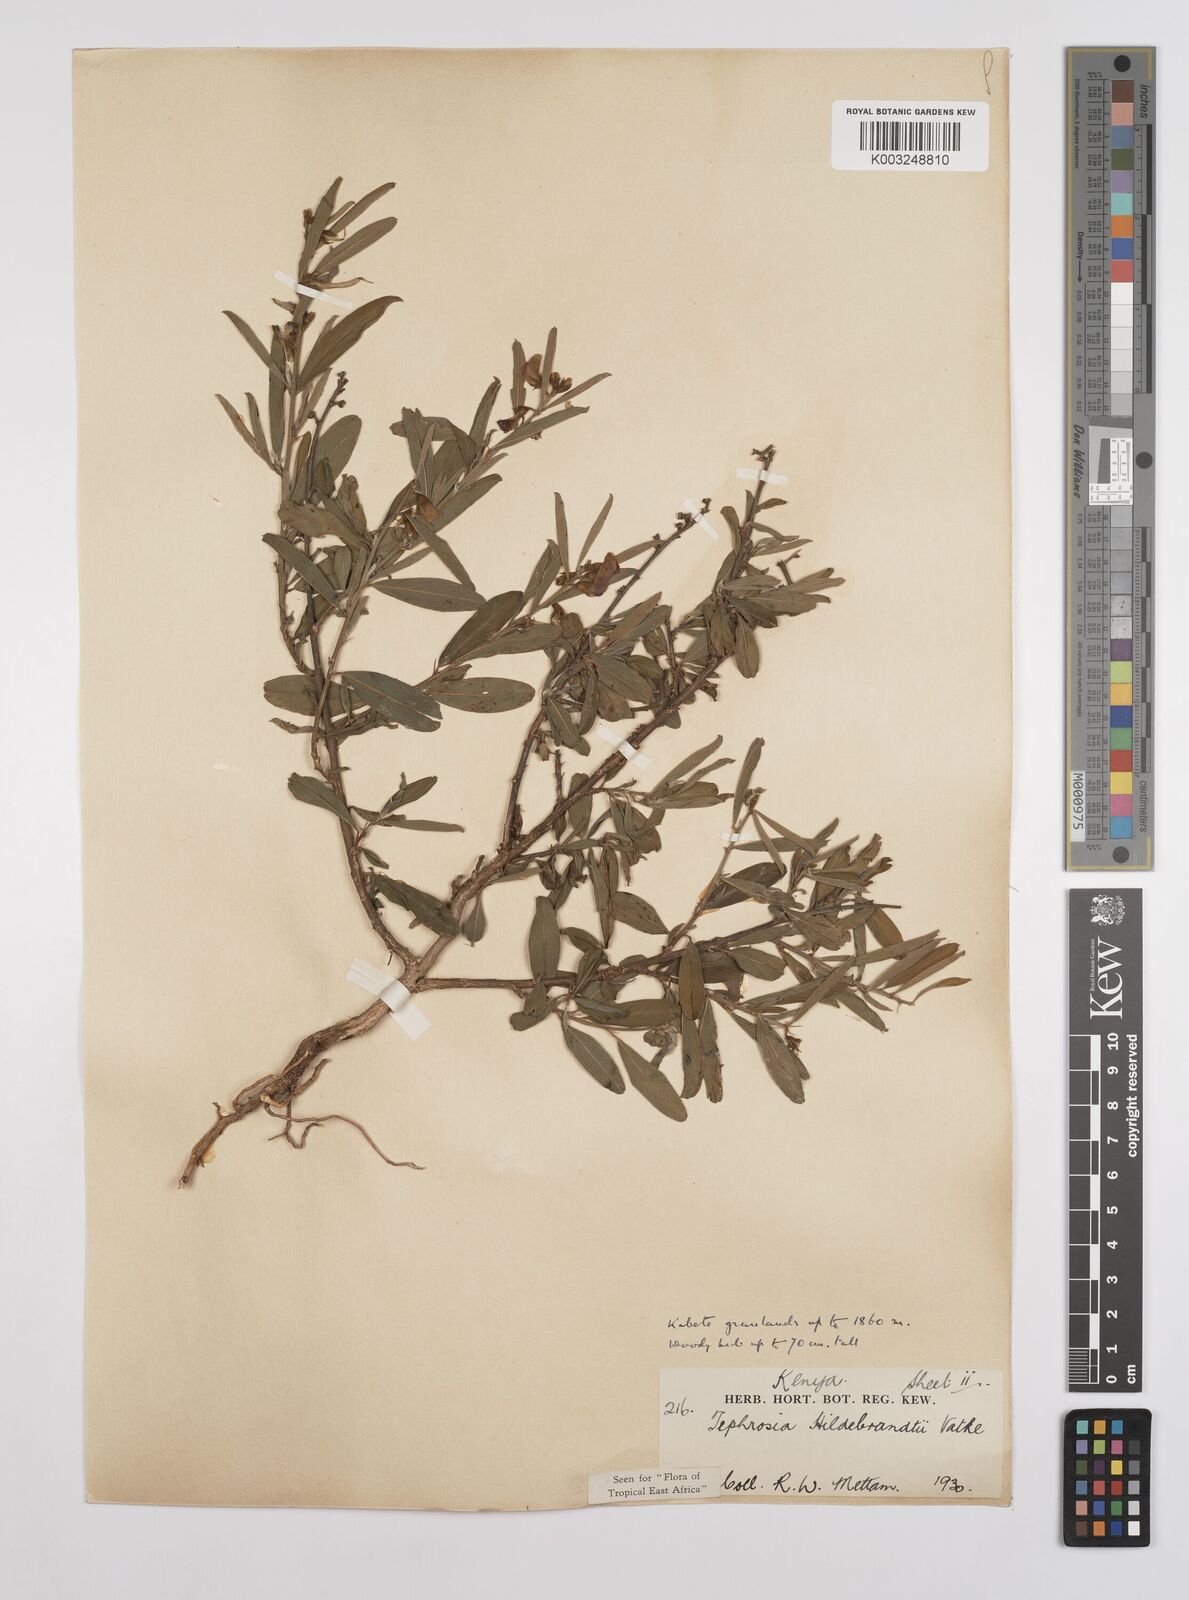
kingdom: Plantae
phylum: Tracheophyta
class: Magnoliopsida
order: Fabales
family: Fabaceae
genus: Tephrosia
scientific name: Tephrosia hildebrandtii
